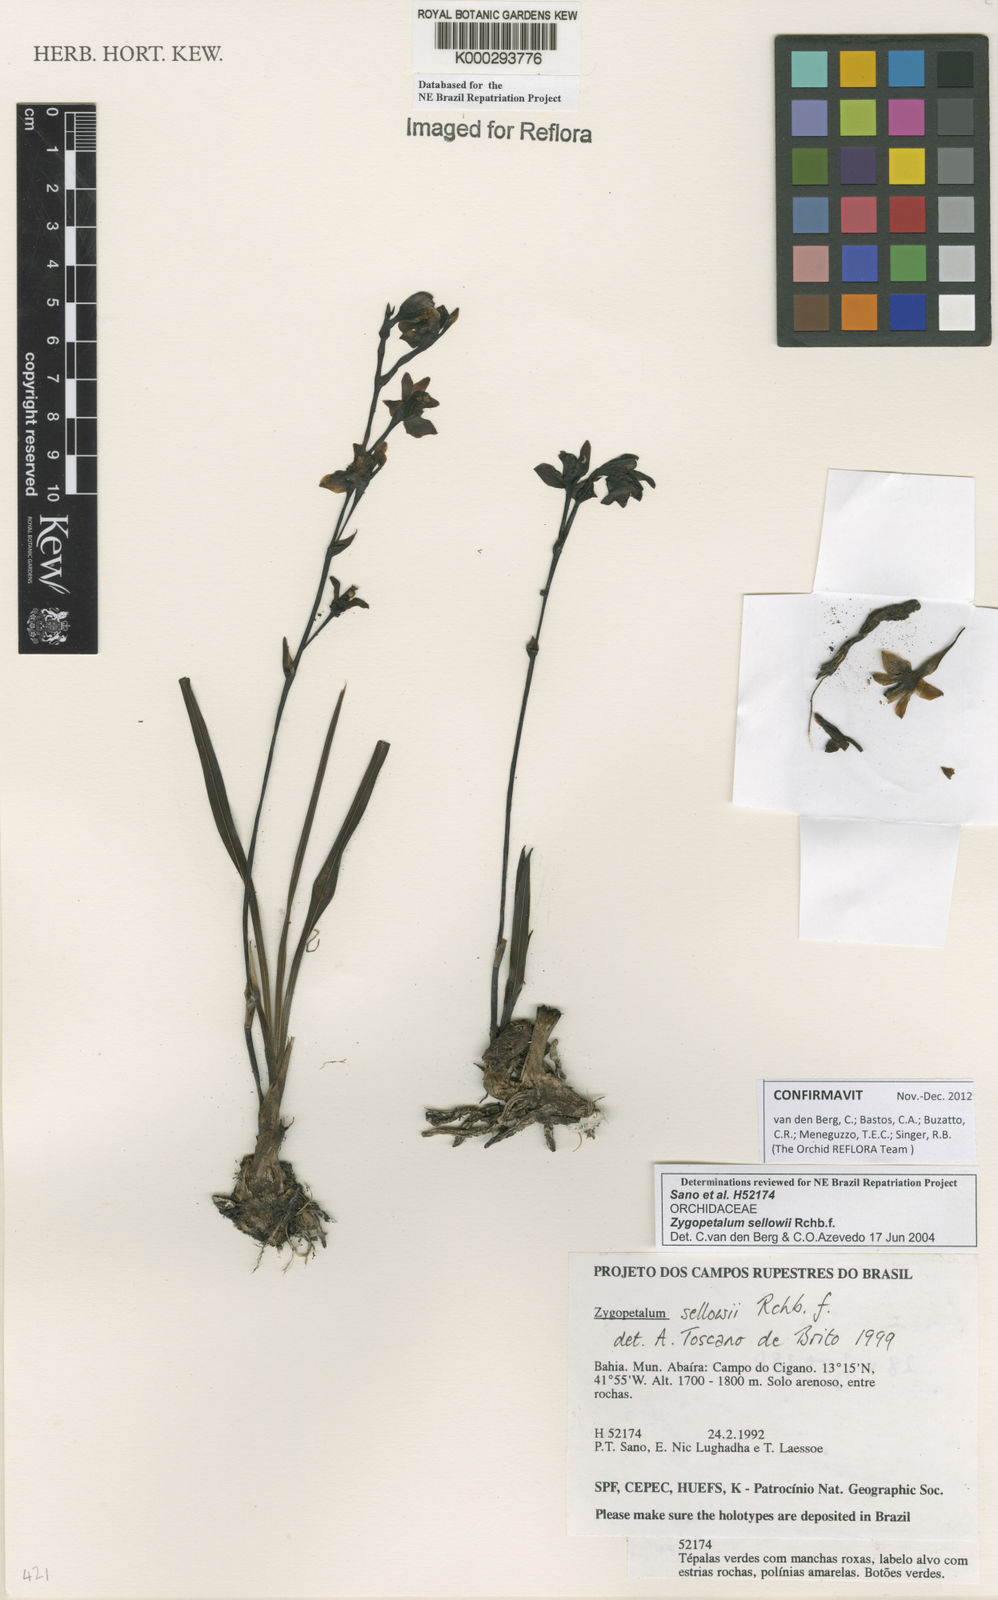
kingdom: Plantae
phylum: Tracheophyta
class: Liliopsida
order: Asparagales
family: Orchidaceae
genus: Zygopetalum
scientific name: Zygopetalum sellowii
